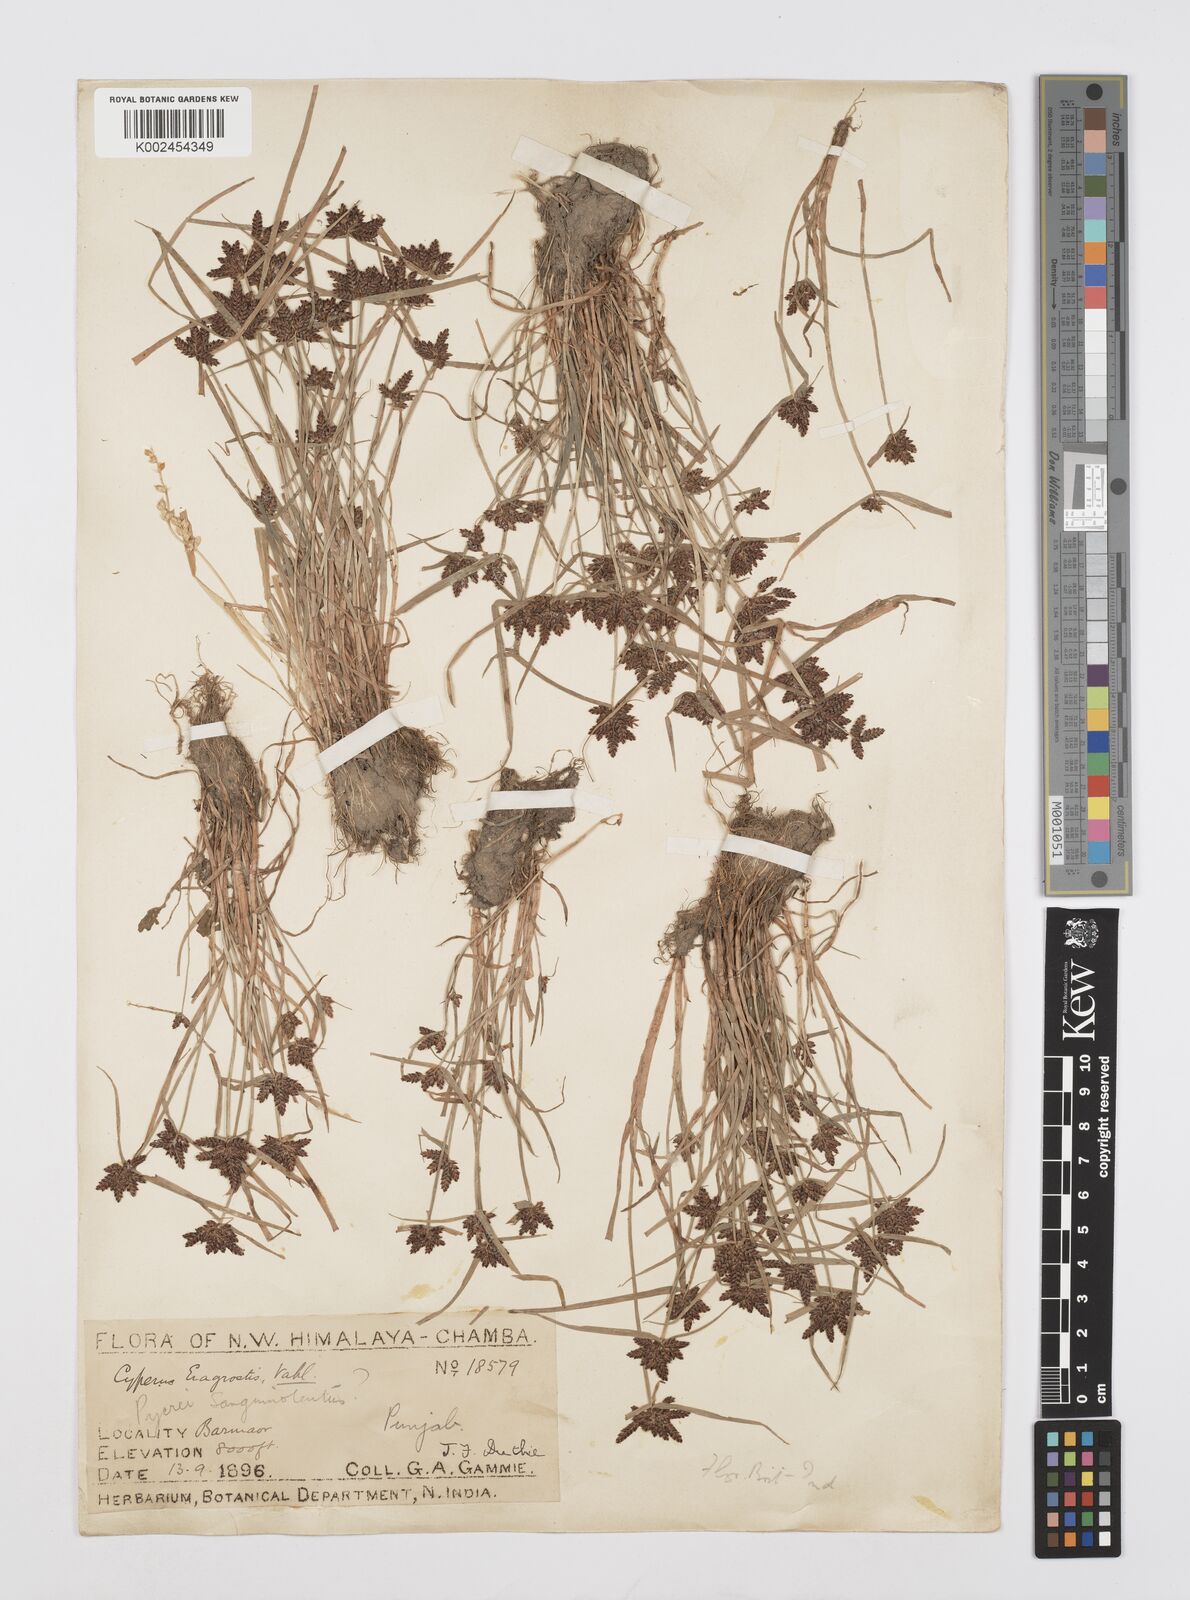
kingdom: Plantae
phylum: Tracheophyta
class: Liliopsida
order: Poales
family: Cyperaceae
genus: Cyperus
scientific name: Cyperus sanguinolentus
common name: Purpleglume flatsedge
